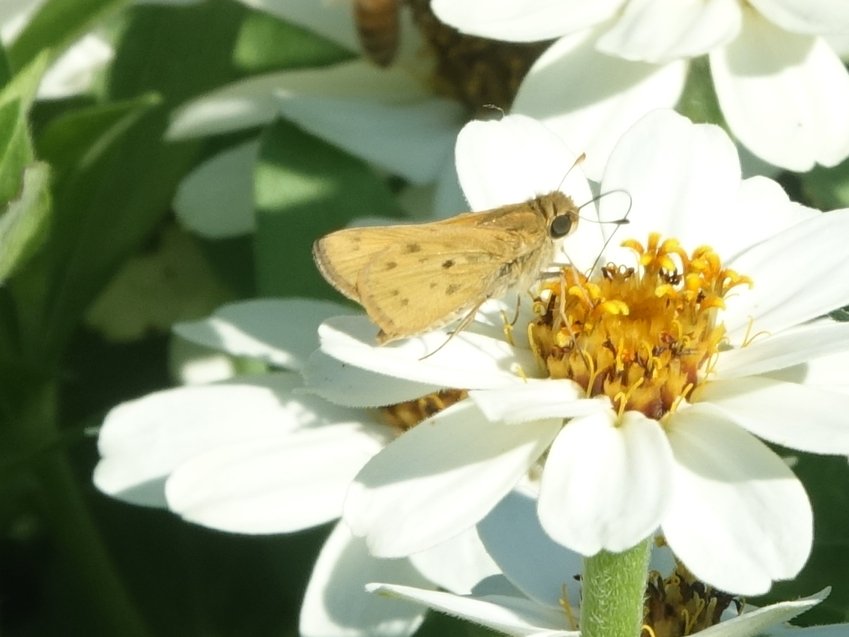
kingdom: Animalia
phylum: Arthropoda
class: Insecta
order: Lepidoptera
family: Hesperiidae
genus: Hylephila
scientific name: Hylephila phyleus
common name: Fiery Skipper
